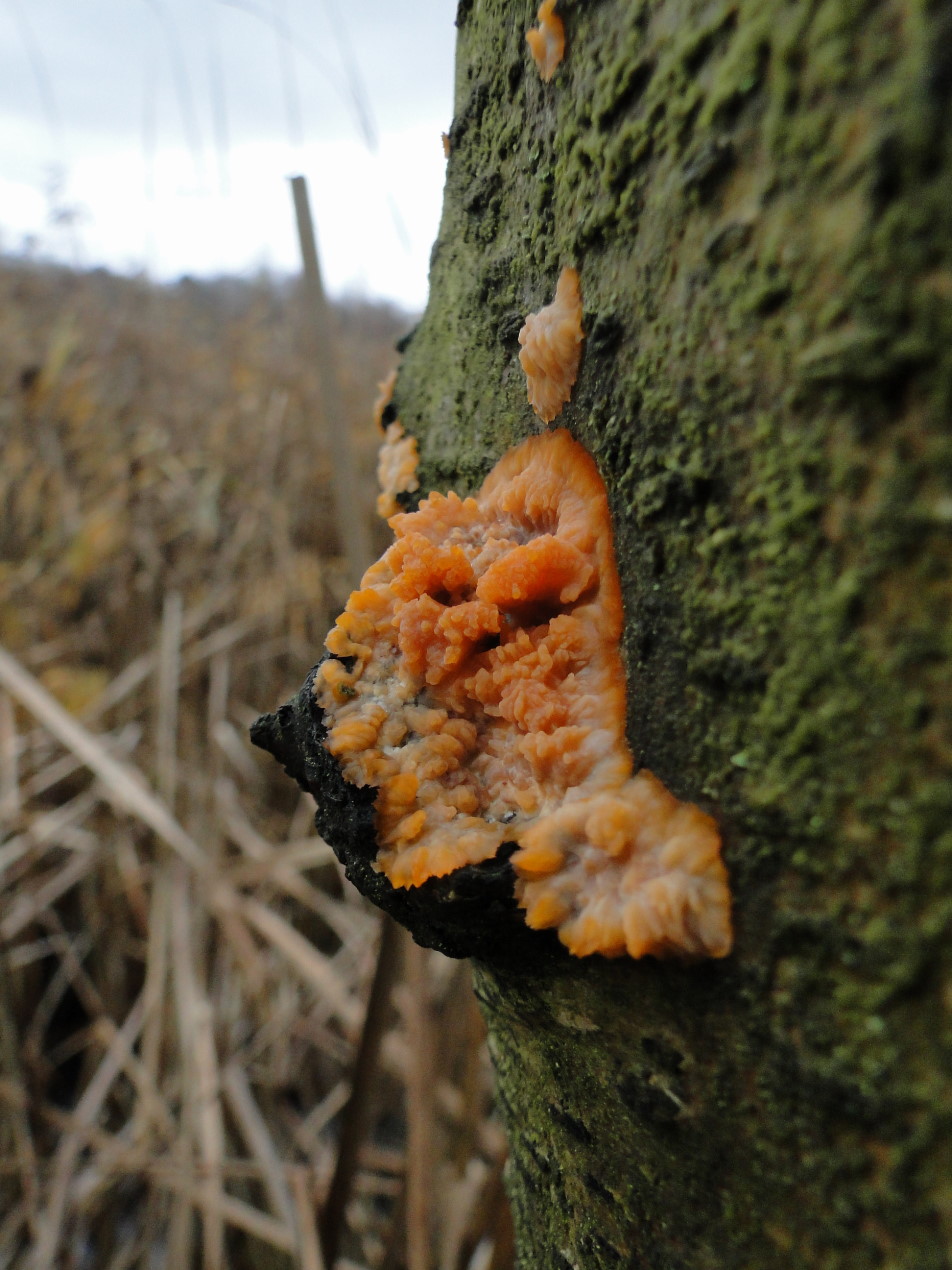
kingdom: Fungi
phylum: Basidiomycota
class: Agaricomycetes
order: Polyporales
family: Meruliaceae
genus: Phlebia
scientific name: Phlebia radiata
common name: stråle-åresvamp
